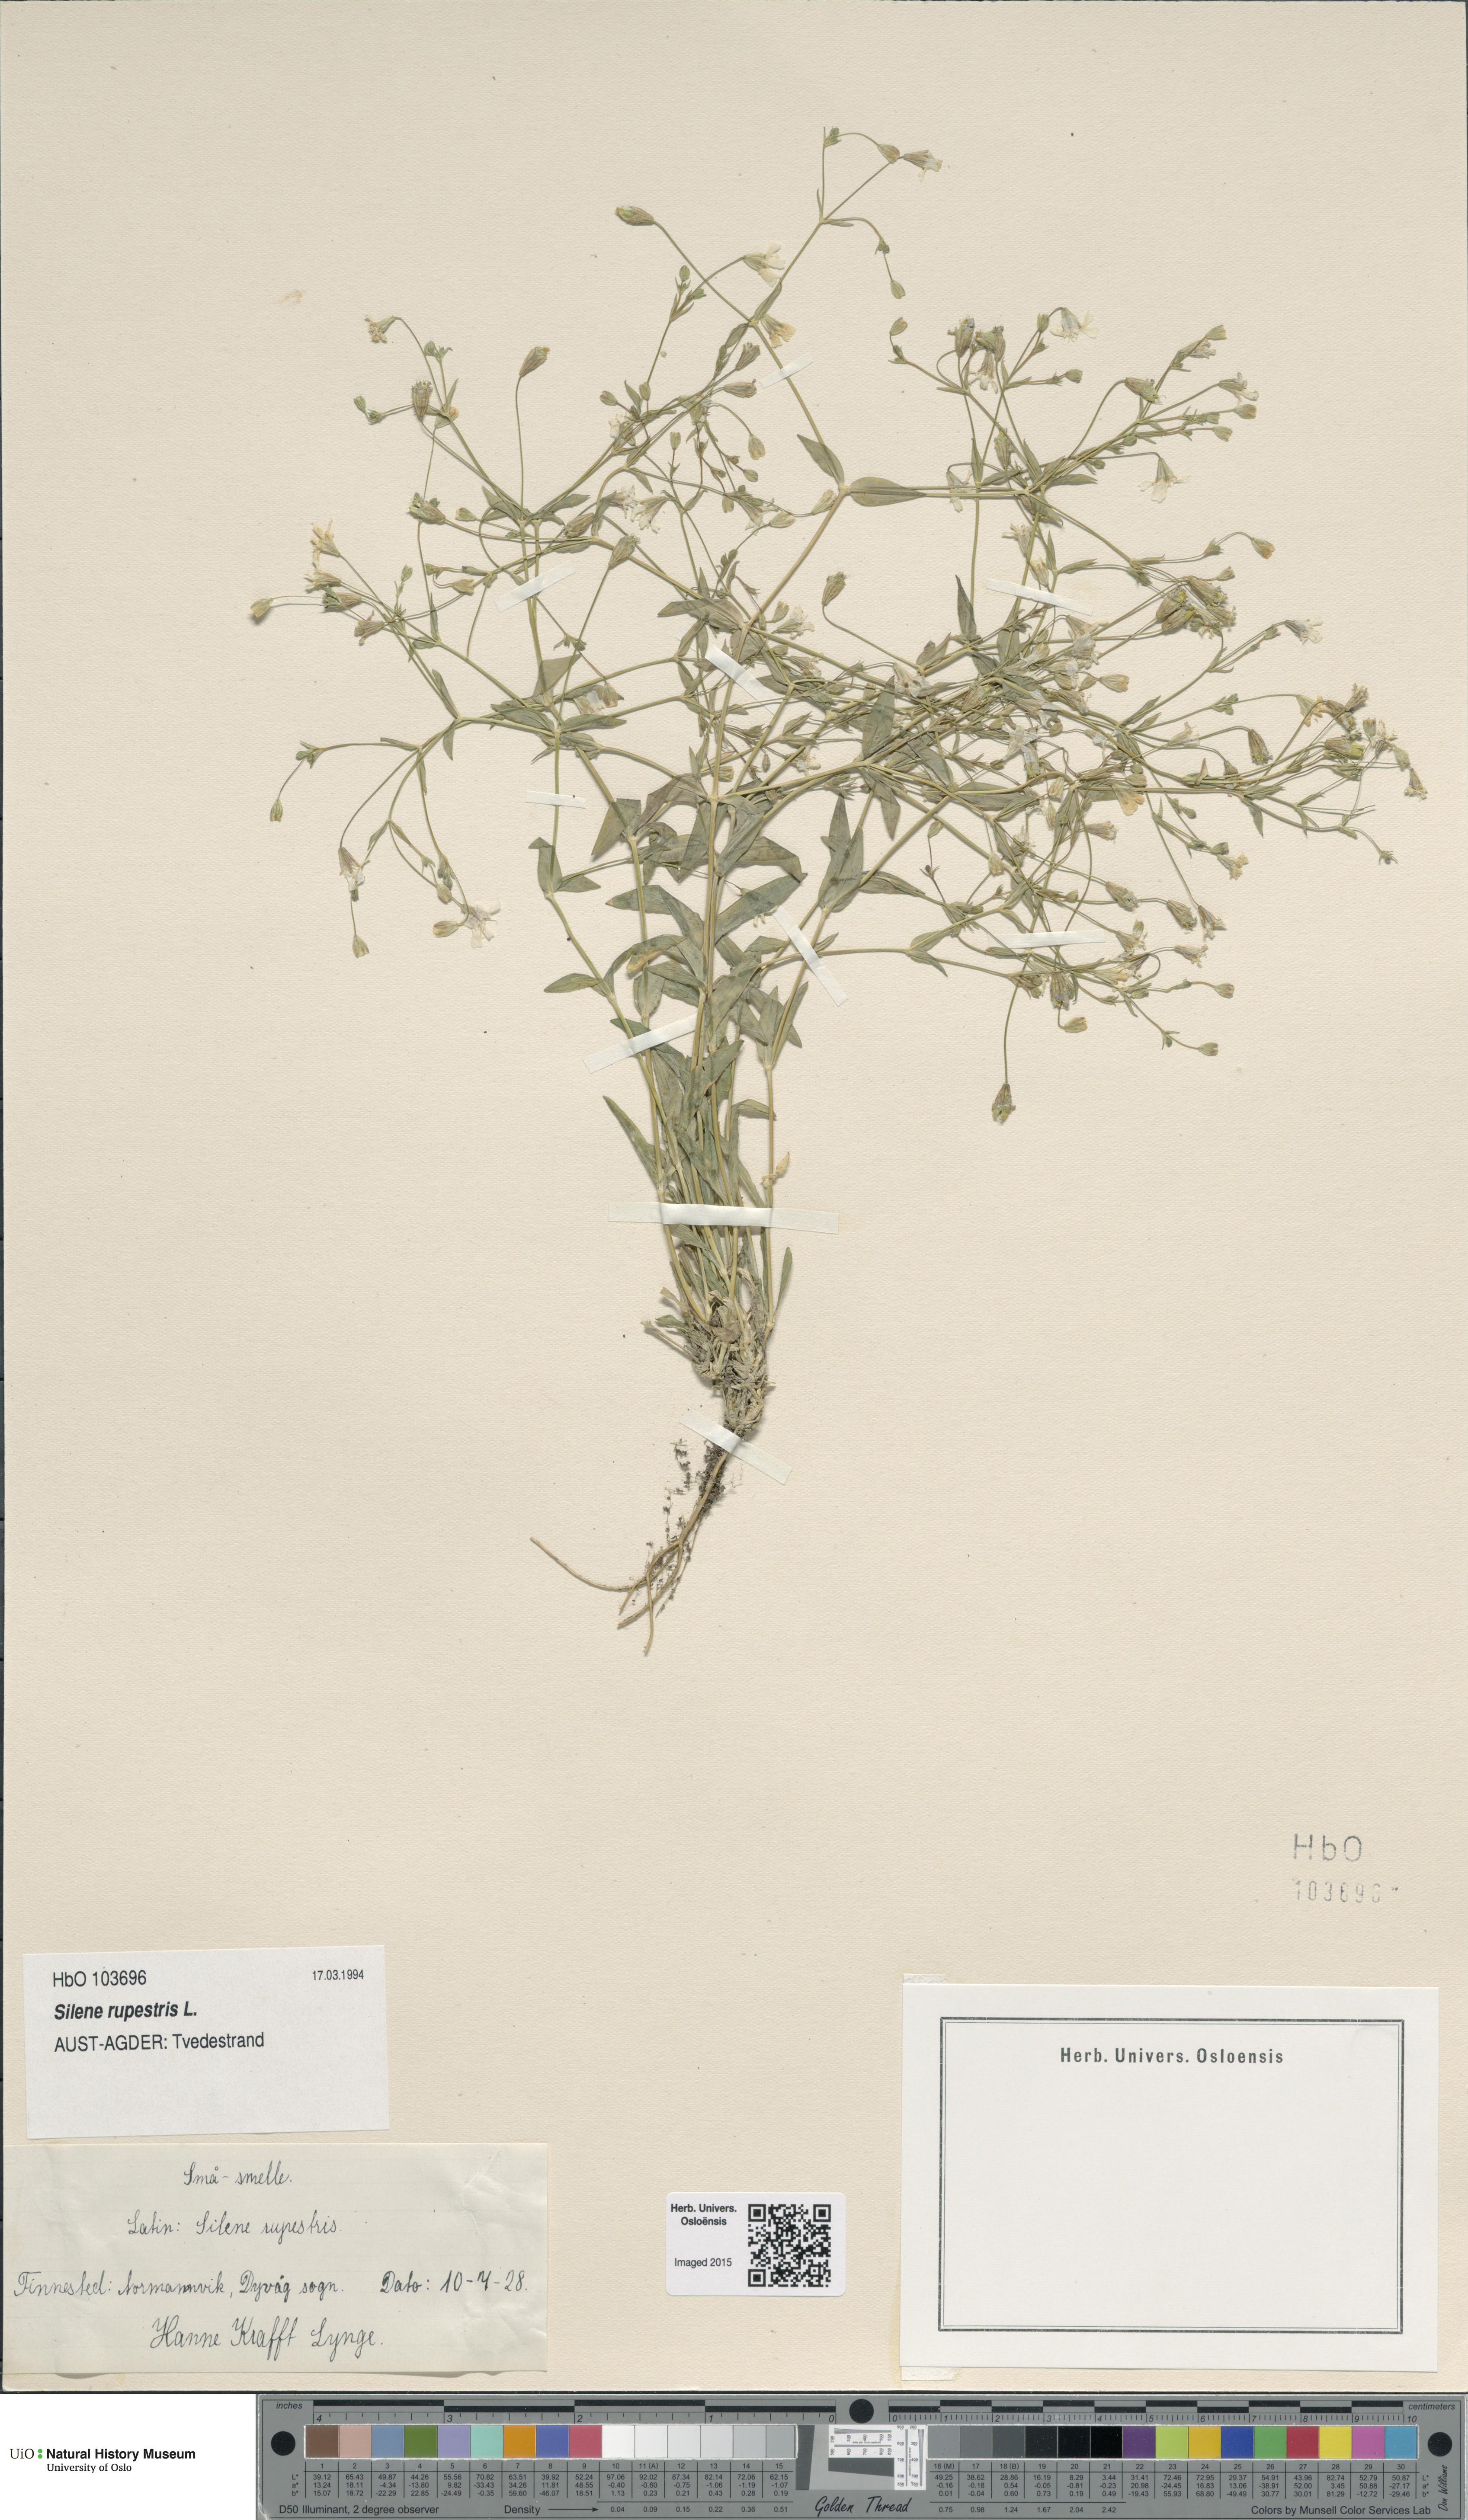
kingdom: Plantae
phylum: Tracheophyta
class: Magnoliopsida
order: Caryophyllales
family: Caryophyllaceae
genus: Atocion
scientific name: Atocion rupestre
